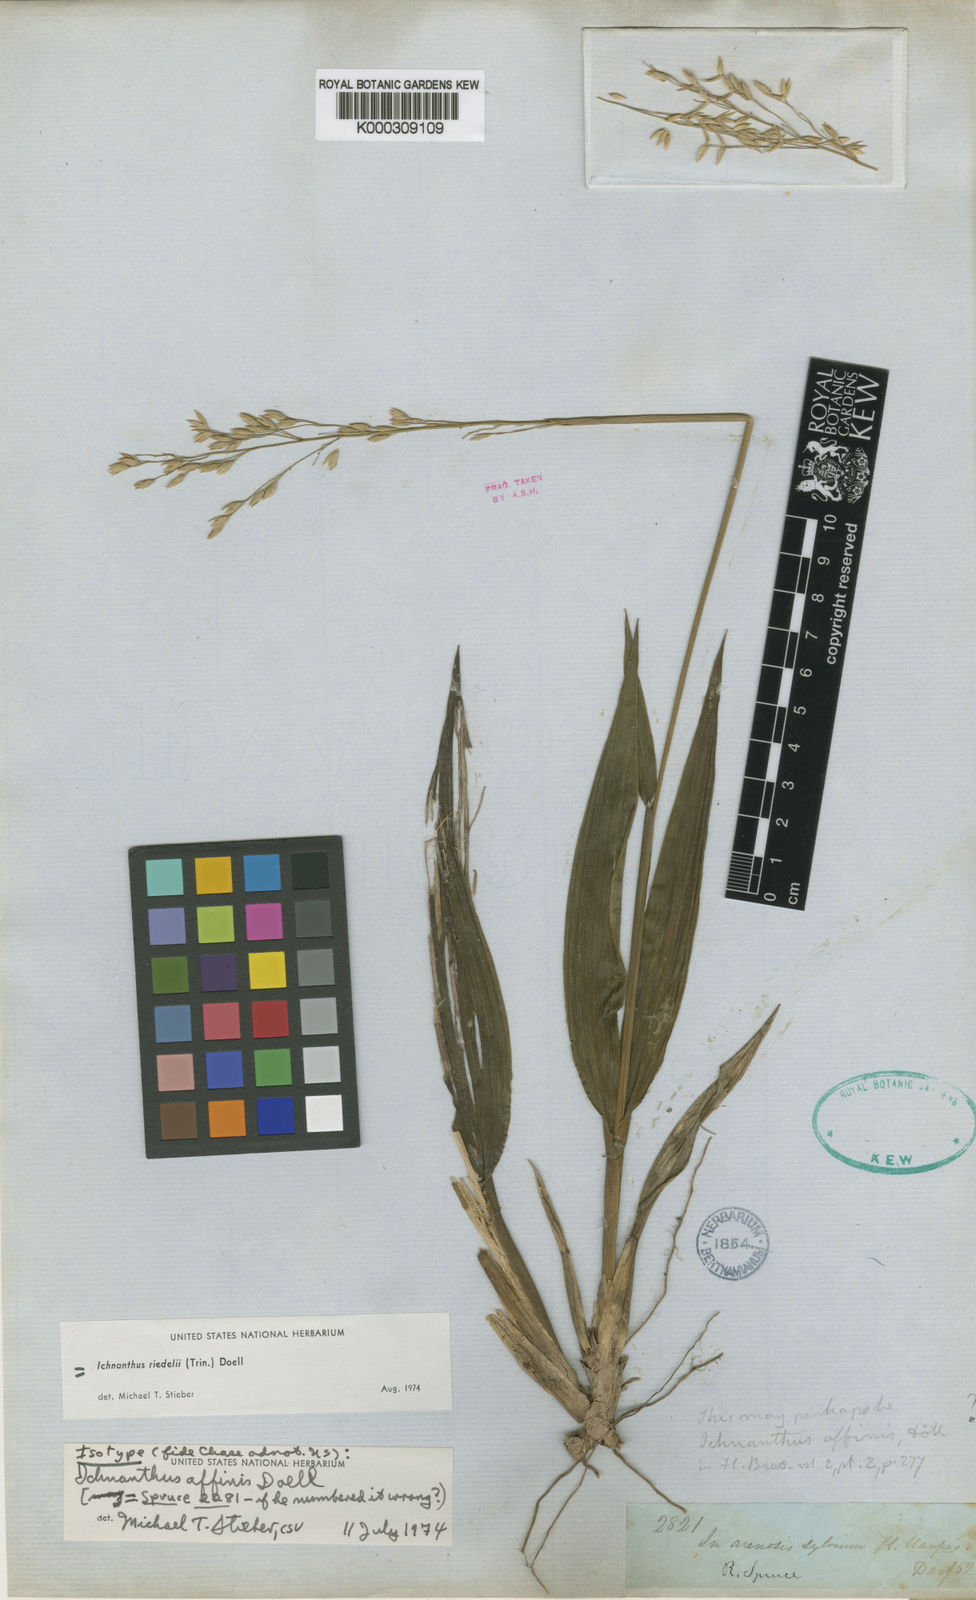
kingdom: Plantae
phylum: Tracheophyta
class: Liliopsida
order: Poales
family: Poaceae
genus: Ichnanthus
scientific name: Ichnanthus
